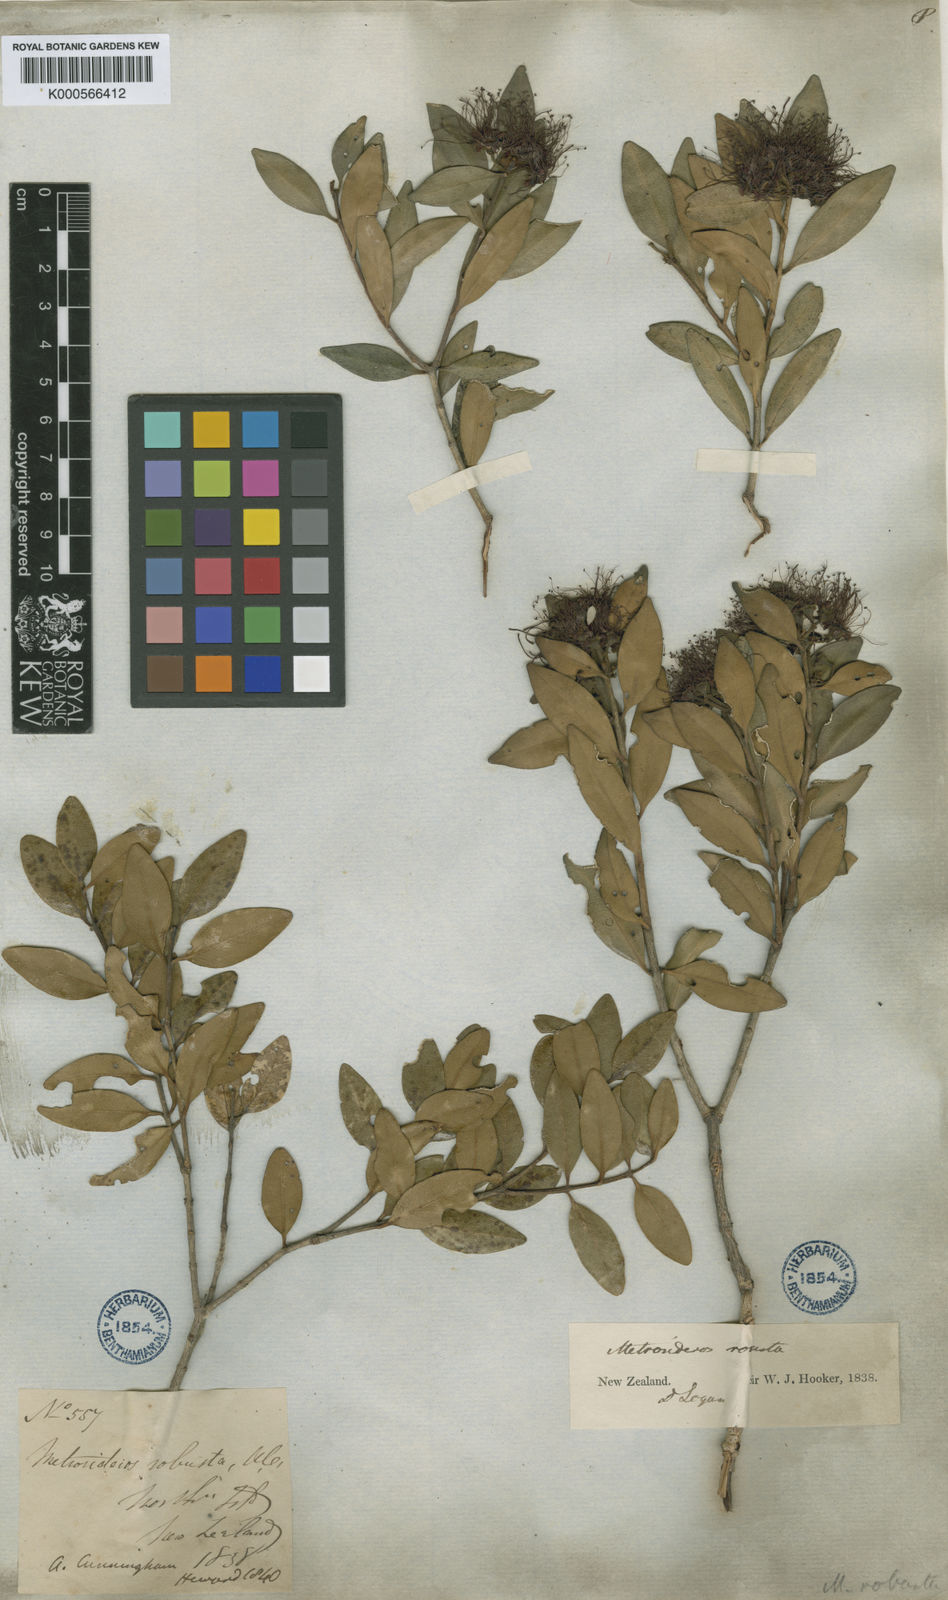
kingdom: Plantae
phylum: Tracheophyta
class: Magnoliopsida
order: Myrtales
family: Myrtaceae
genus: Metrosideros
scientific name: Metrosideros robusta
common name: Northern rata
